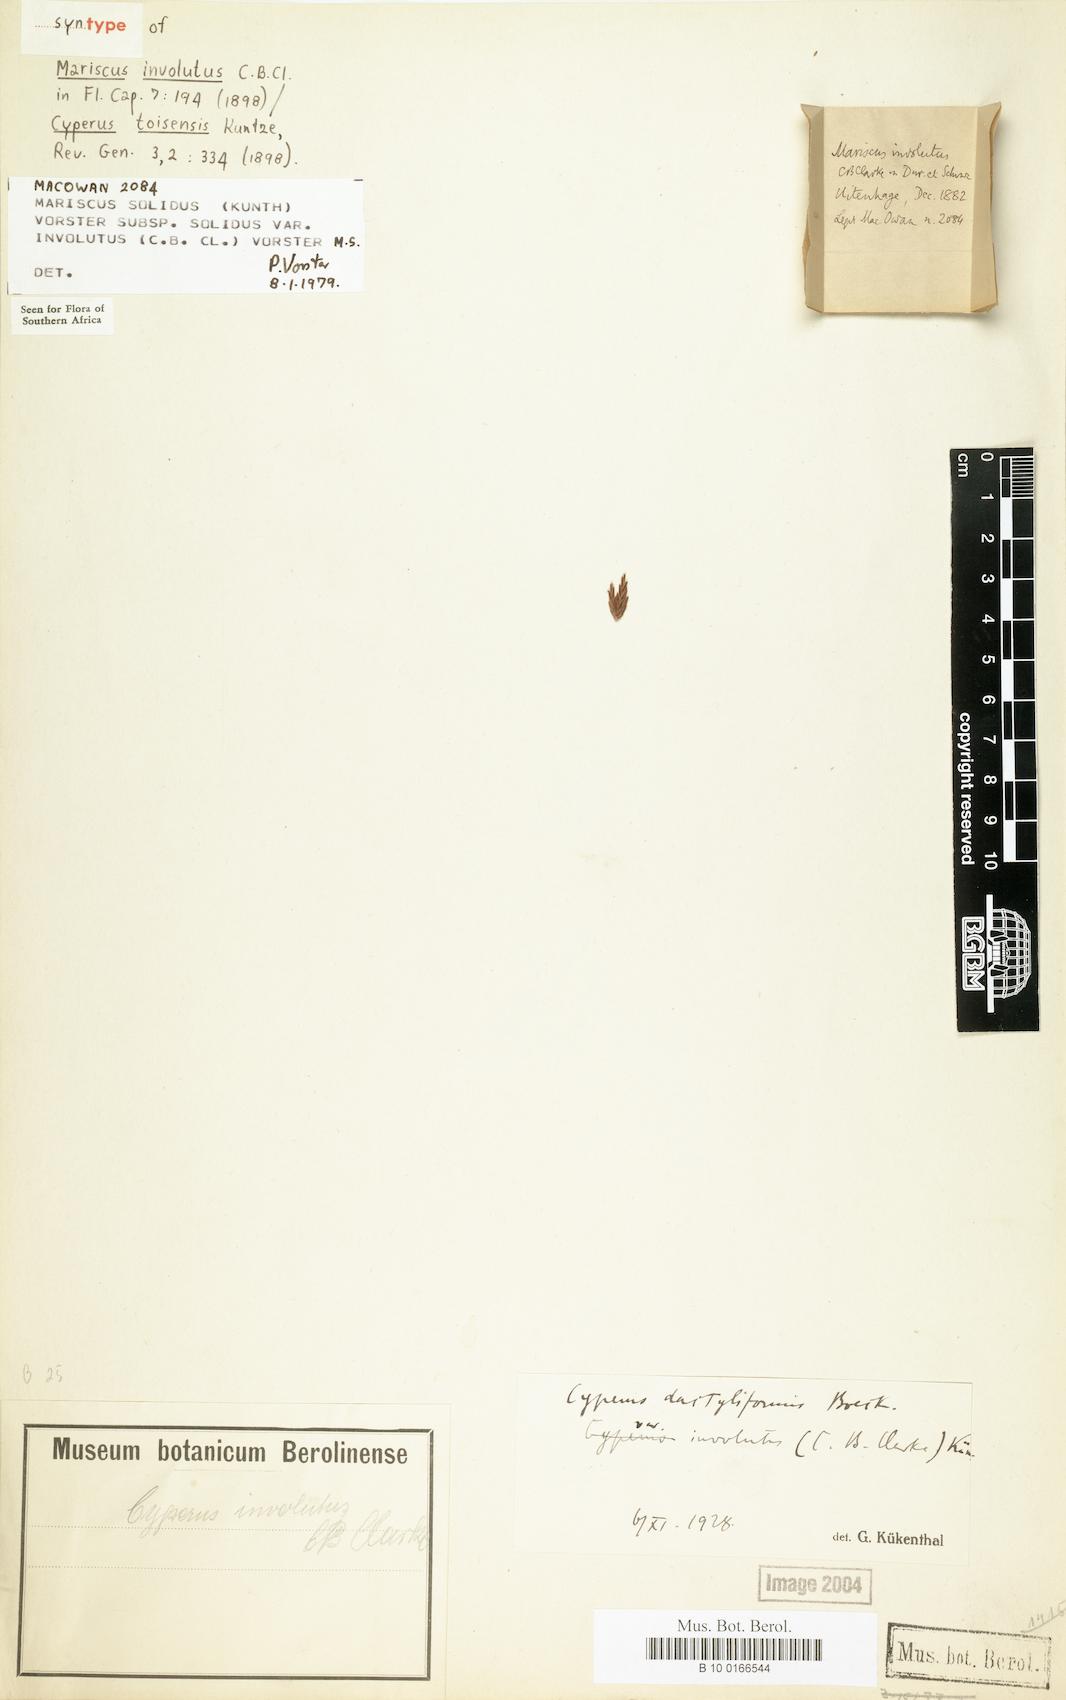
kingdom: Plantae
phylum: Tracheophyta
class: Liliopsida
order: Poales
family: Cyperaceae
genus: Cyperus
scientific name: Cyperus solidus
